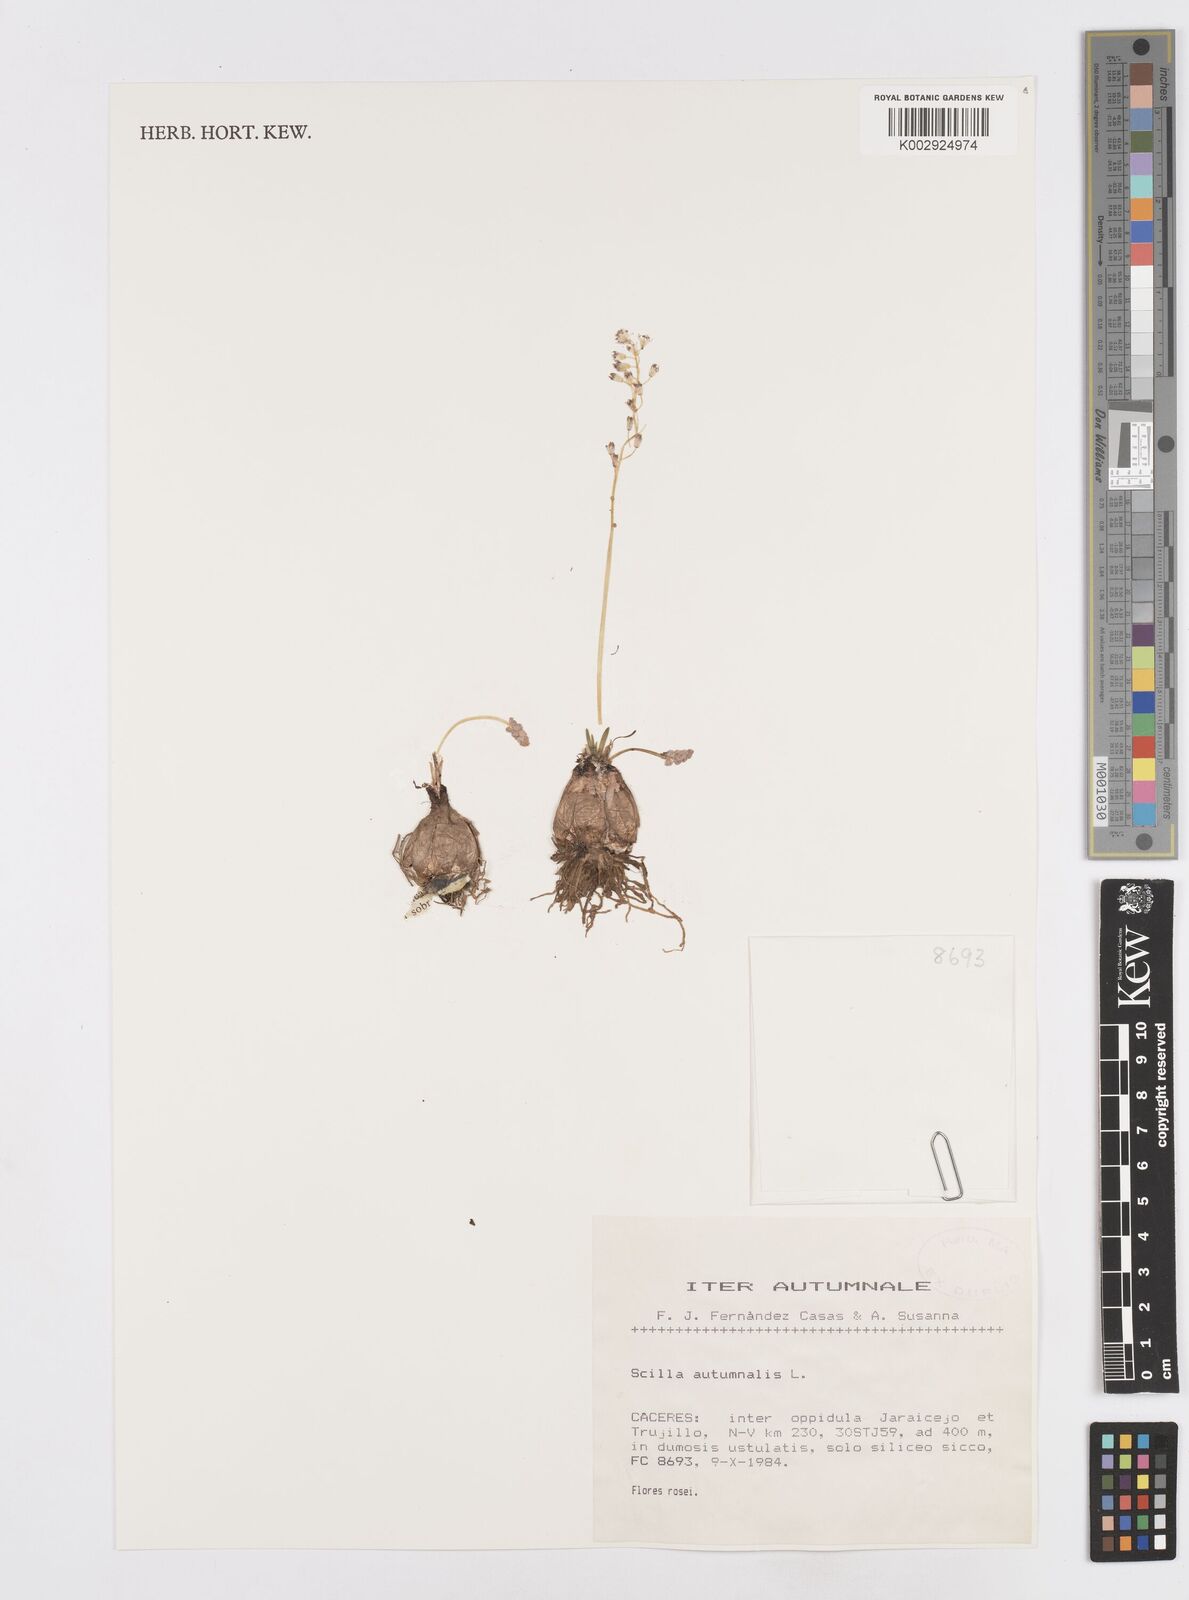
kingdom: Plantae
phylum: Tracheophyta
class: Liliopsida
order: Asparagales
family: Asparagaceae
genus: Prospero
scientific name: Prospero autumnale
